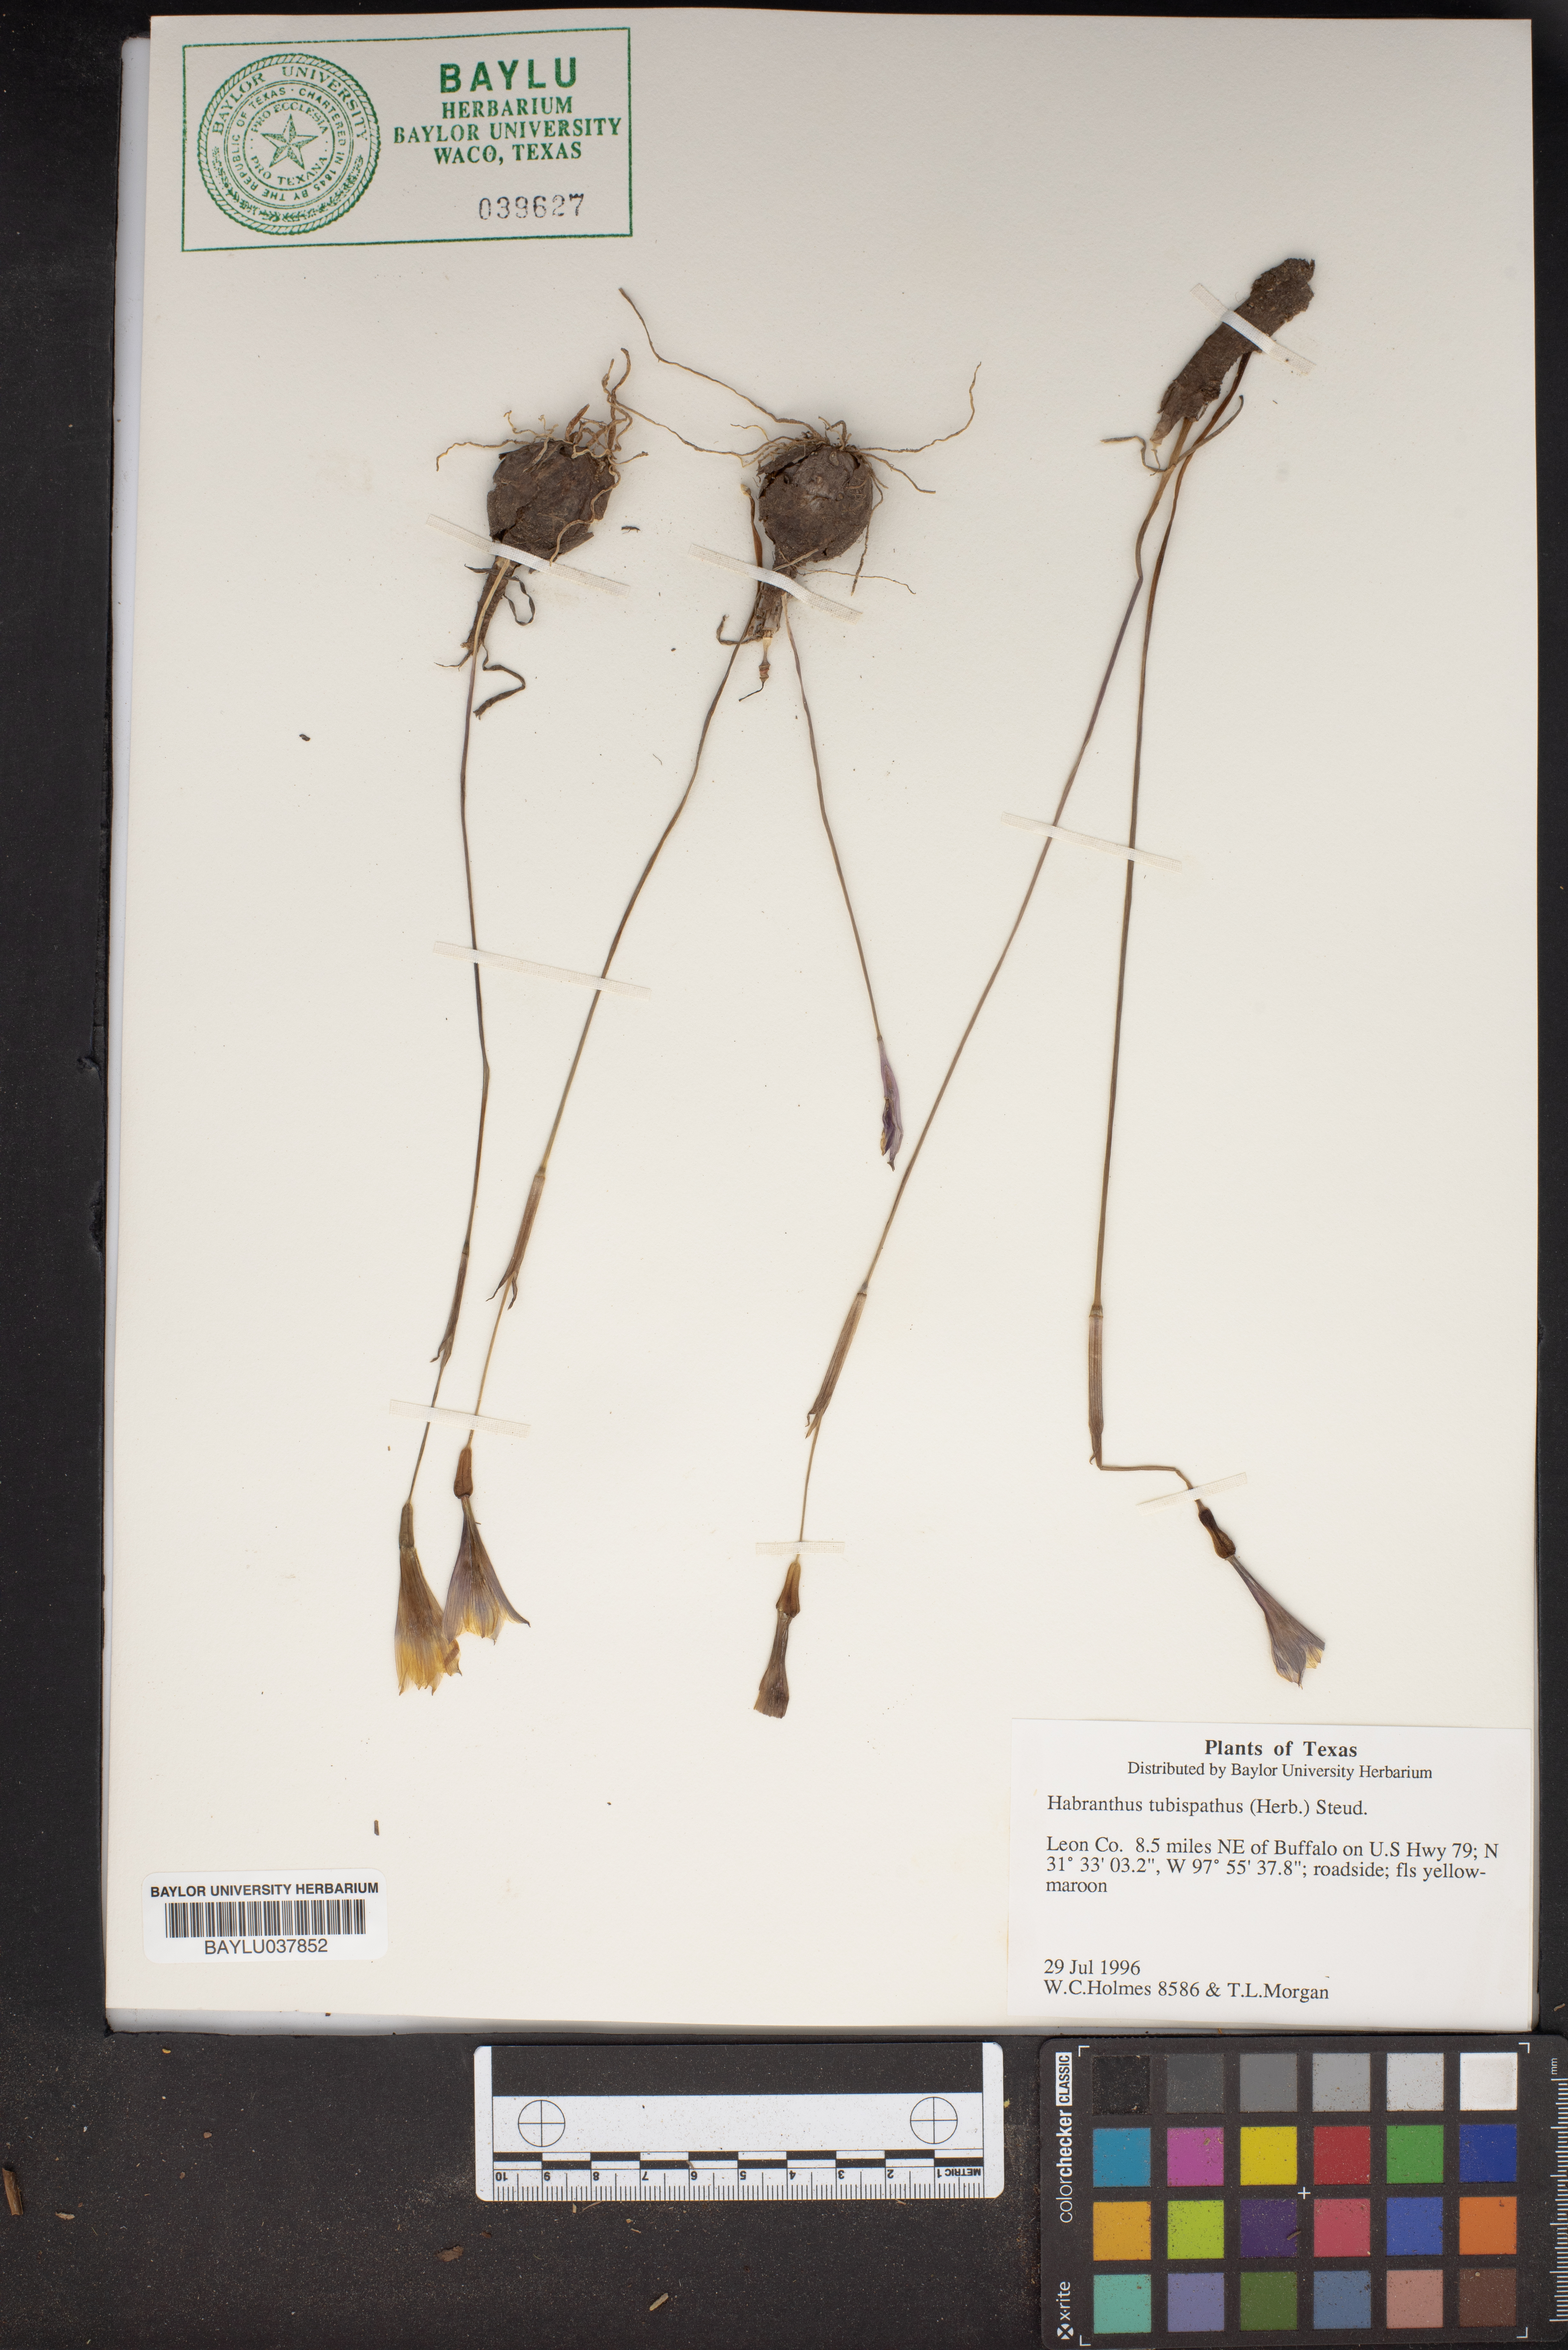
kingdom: Plantae
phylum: Tracheophyta
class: Liliopsida
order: Asparagales
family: Amaryllidaceae
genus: Zephyranthes
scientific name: Zephyranthes tubispatha
